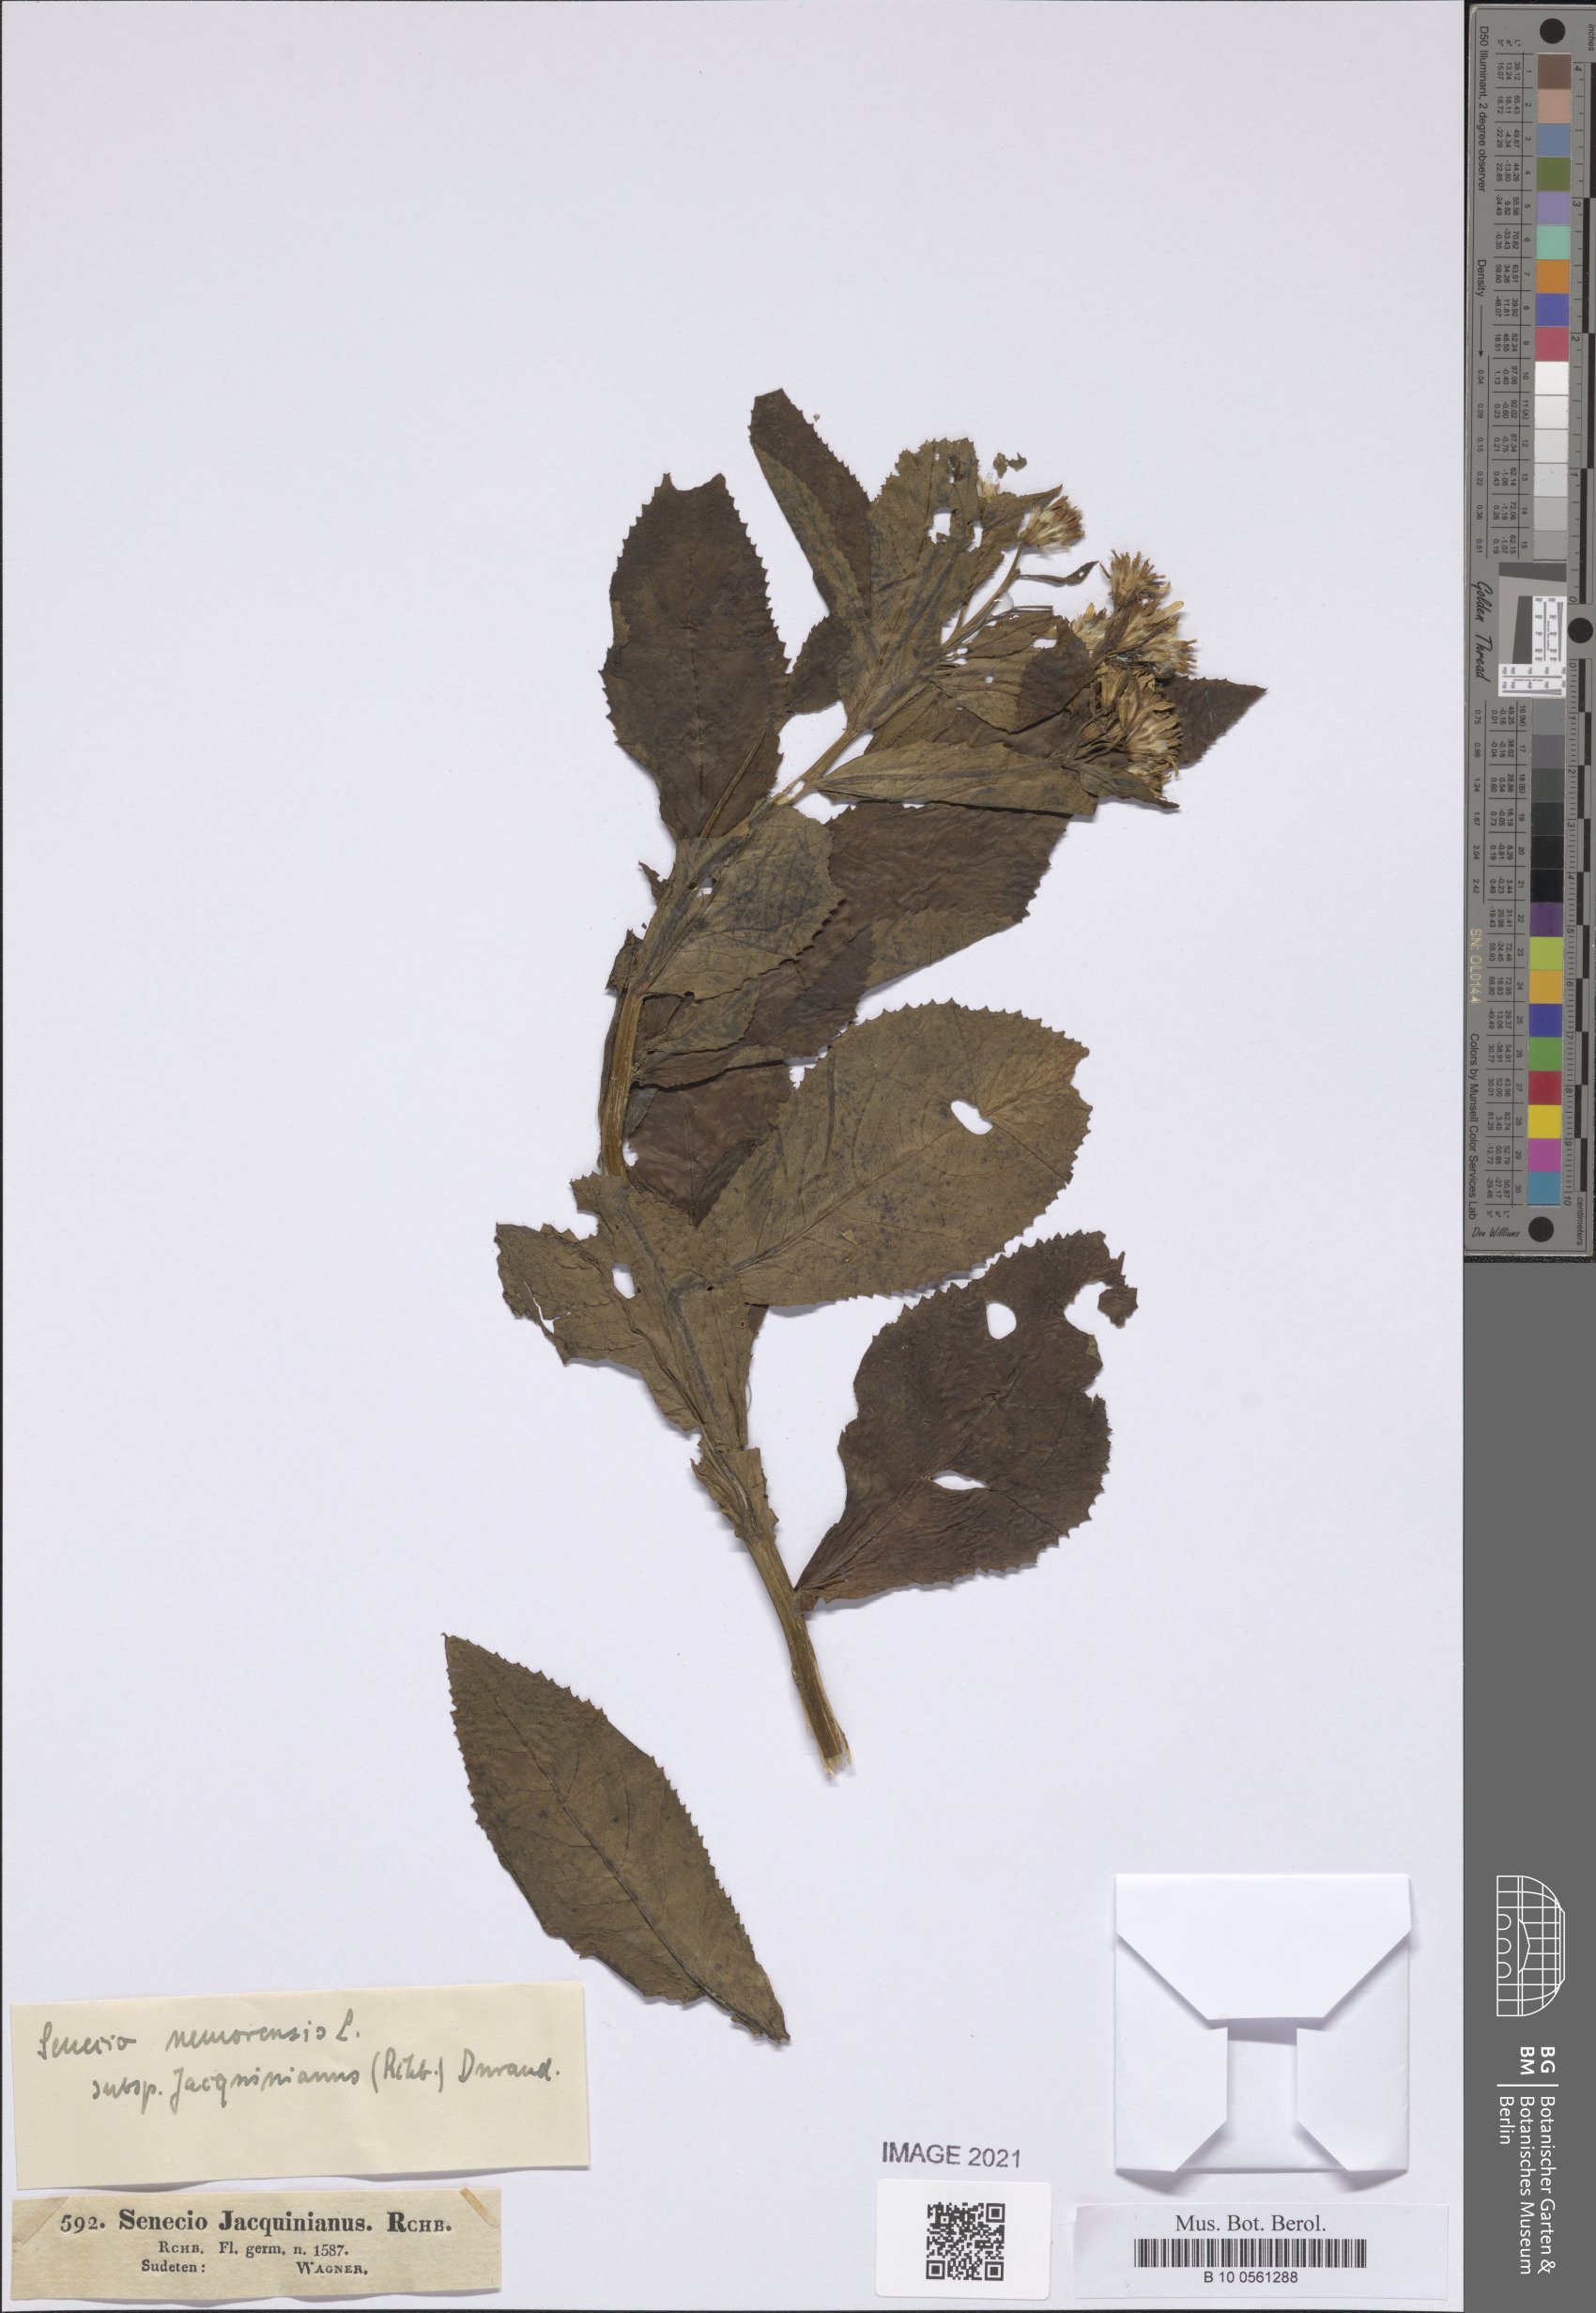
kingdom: Plantae
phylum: Tracheophyta
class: Magnoliopsida
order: Asterales
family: Asteraceae
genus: Senecio
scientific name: Senecio germanicus
